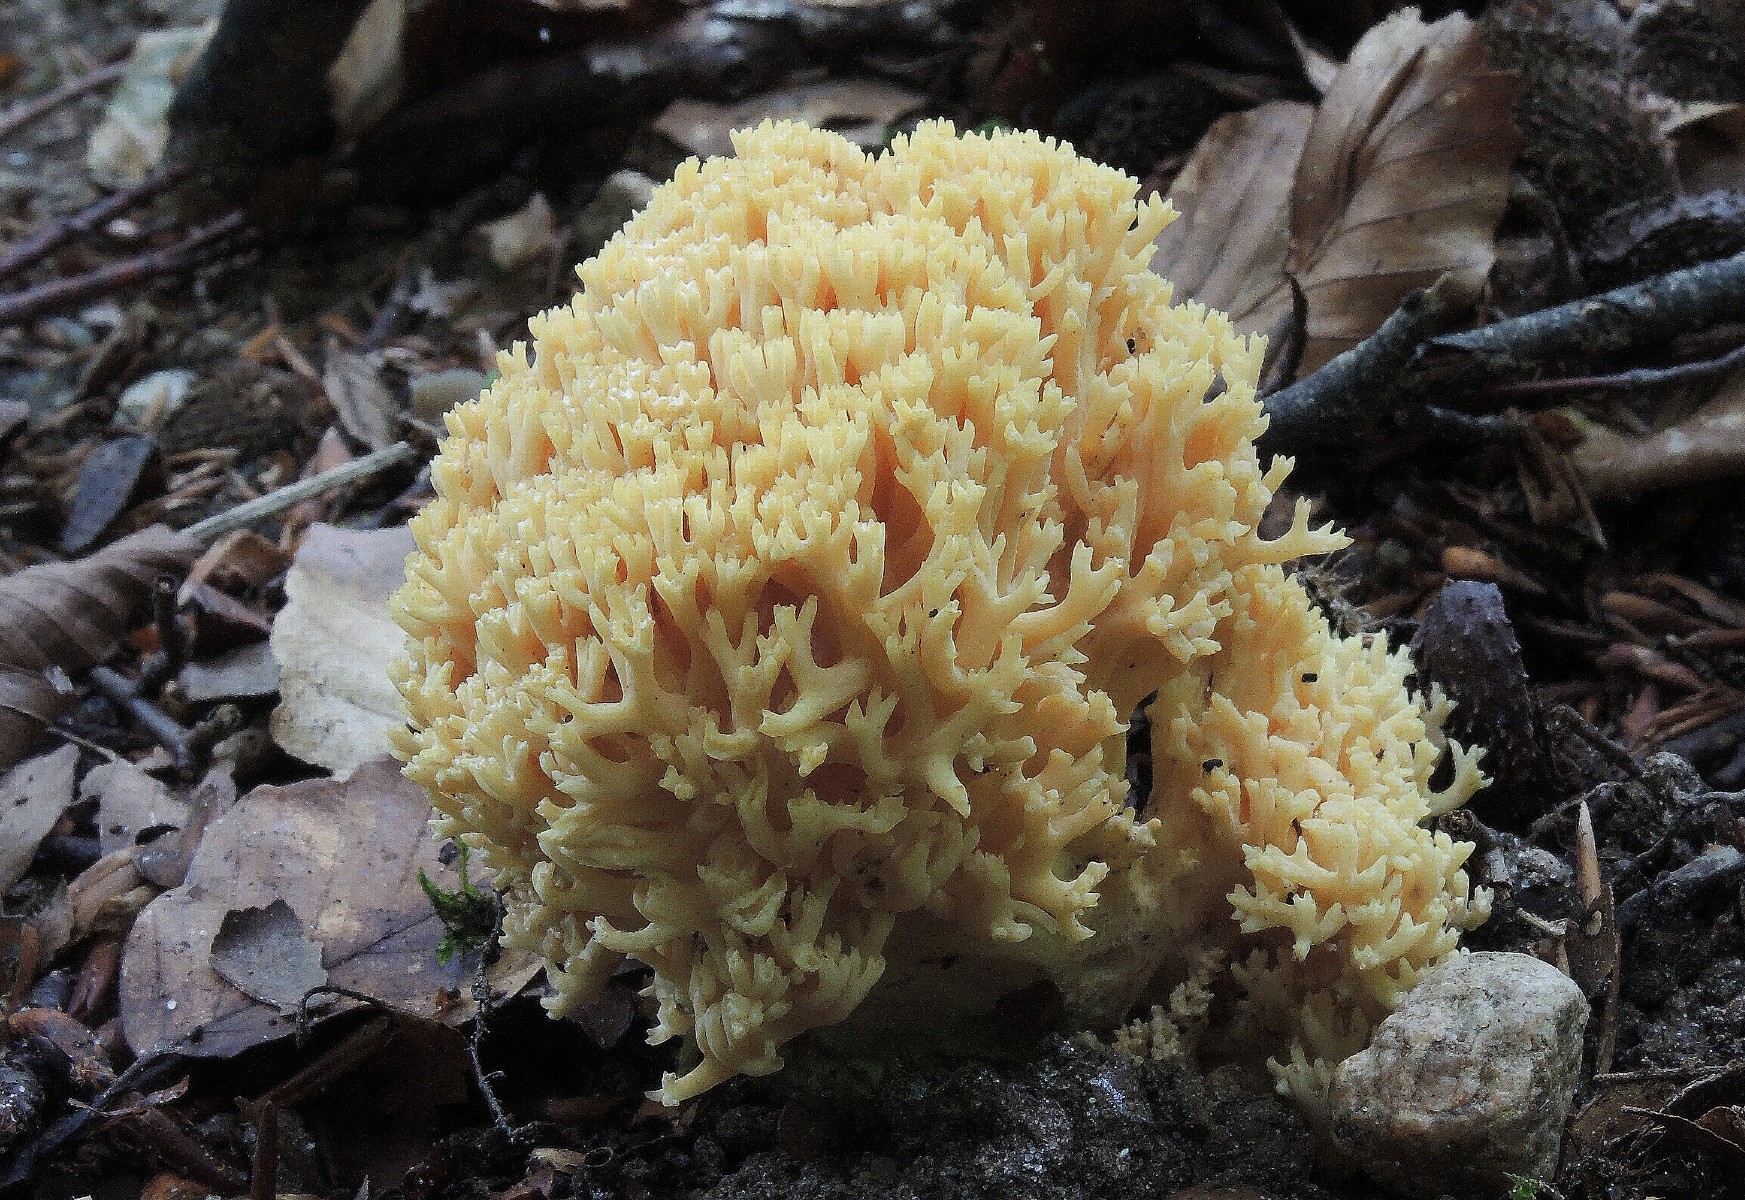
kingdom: Fungi
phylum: Basidiomycota
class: Agaricomycetes
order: Gomphales
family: Gomphaceae
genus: Ramaria
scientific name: Ramaria flavescens
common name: stor koralsvamp
